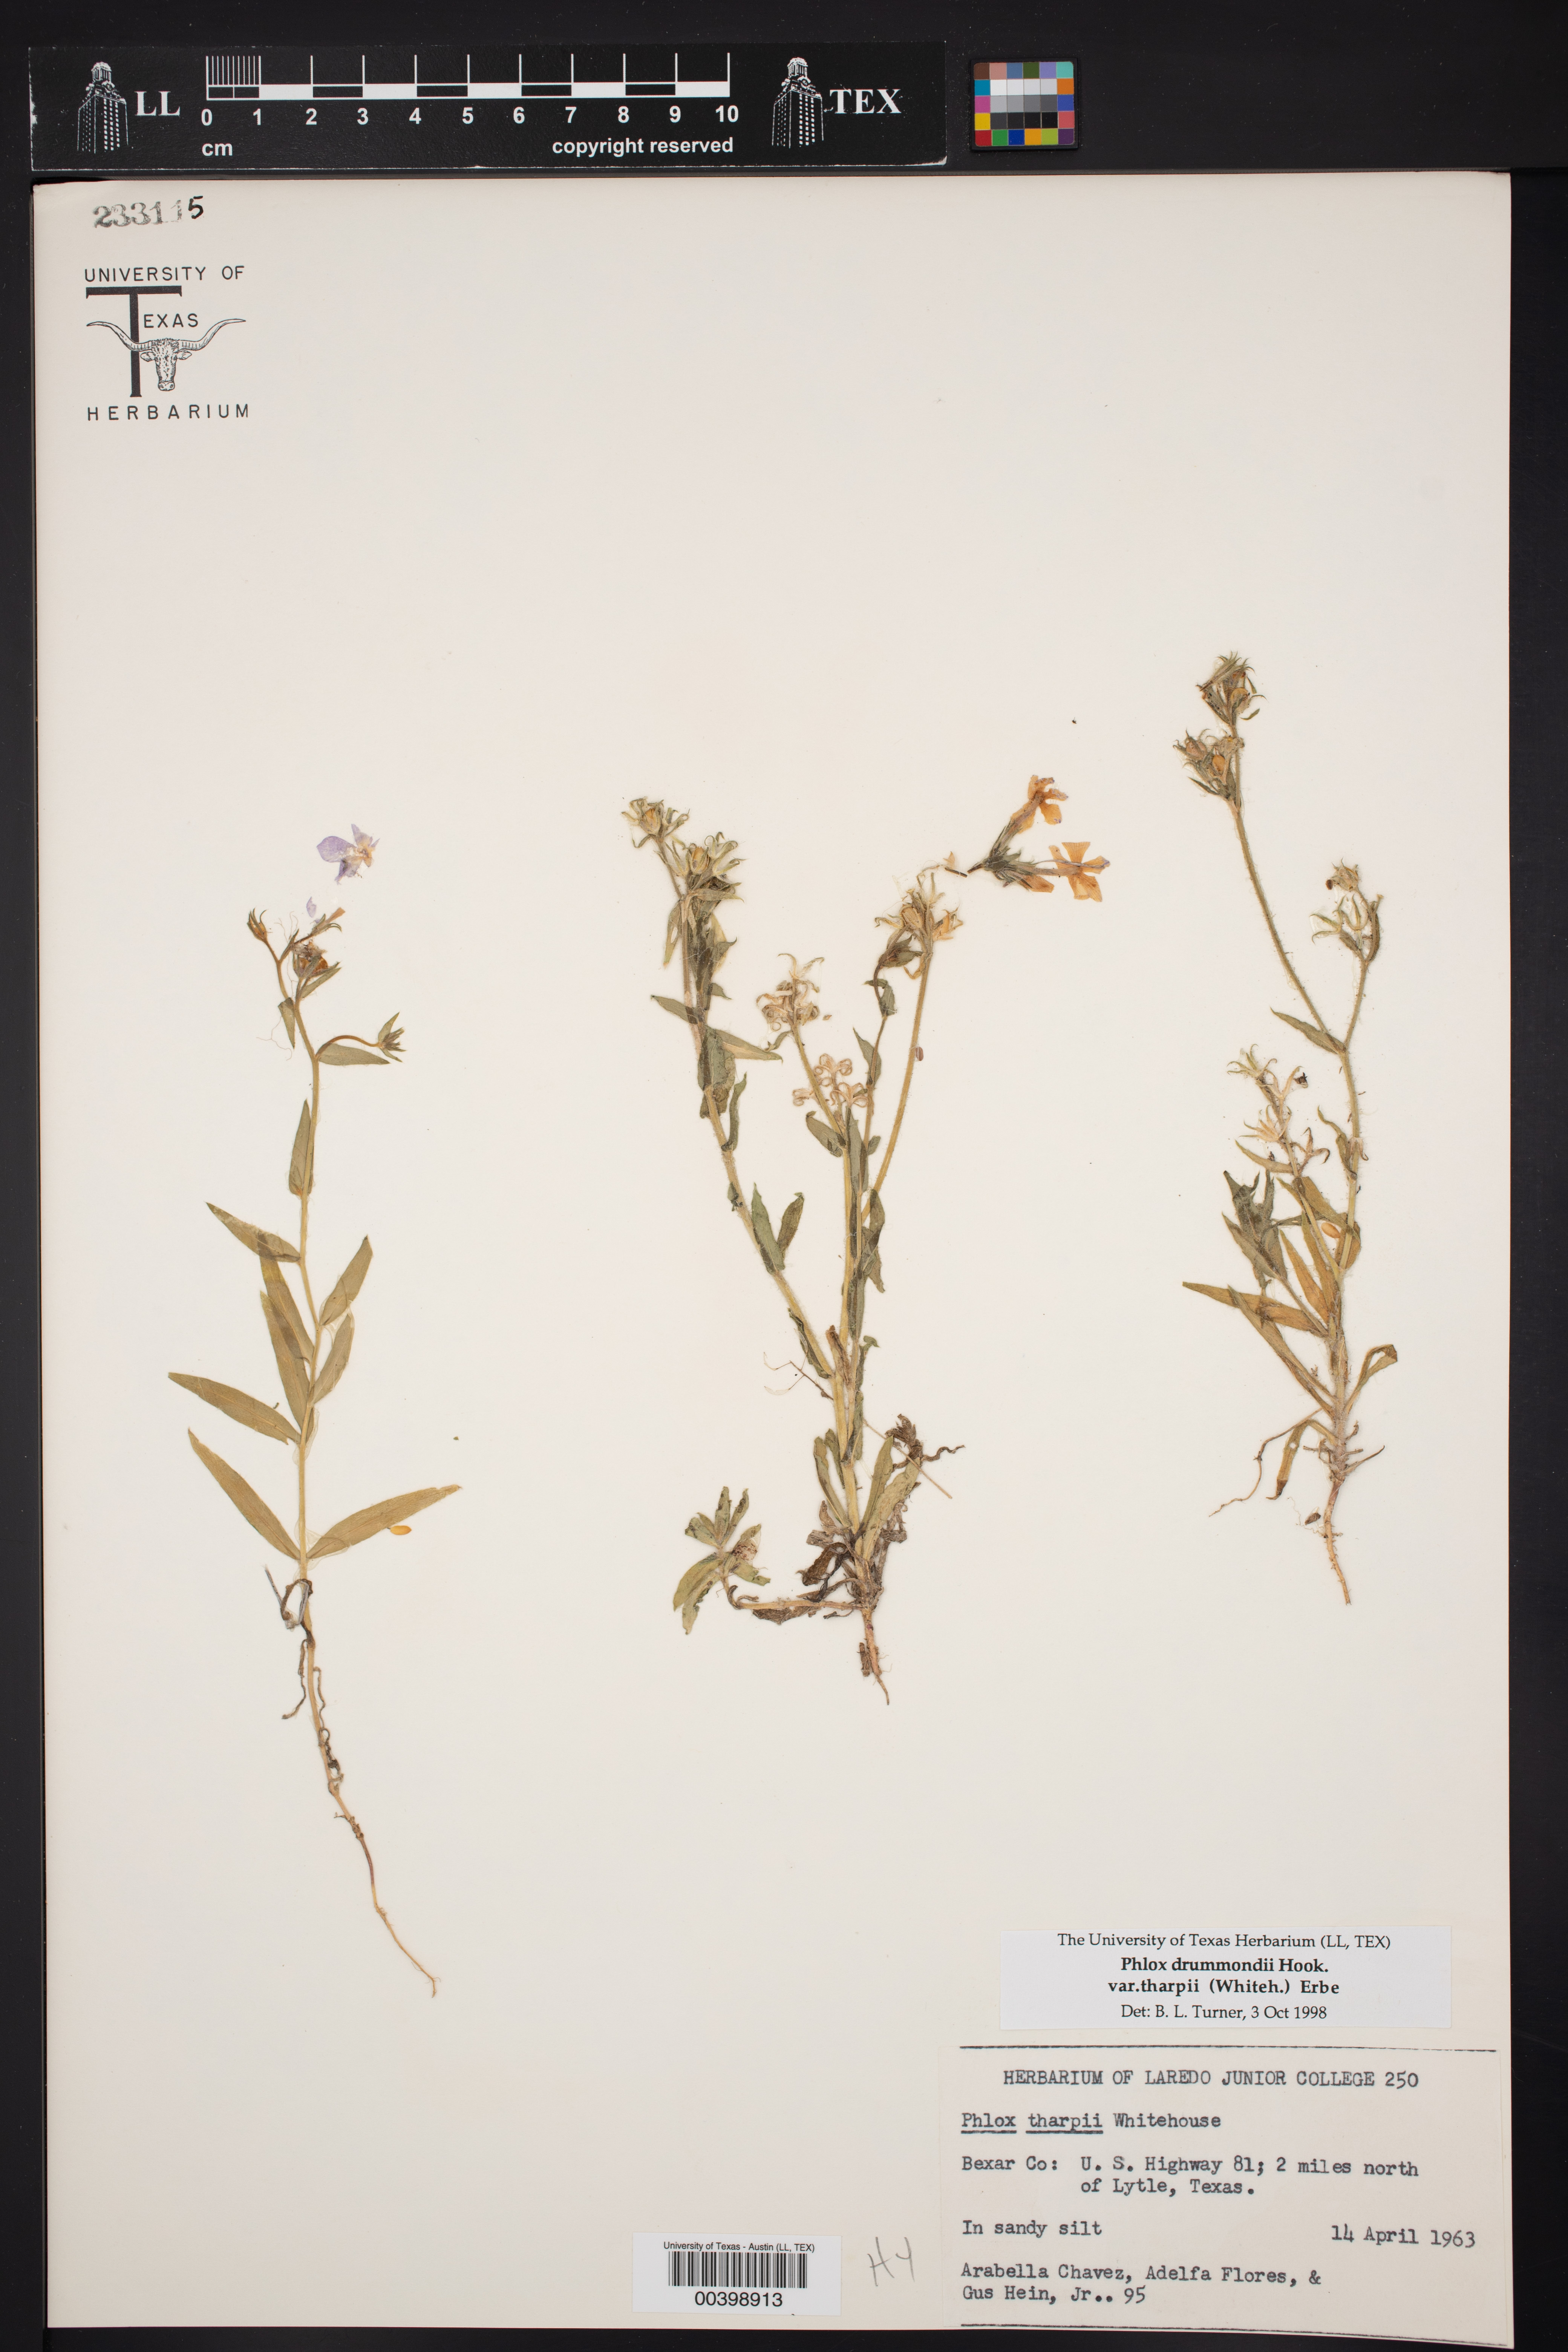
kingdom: Plantae
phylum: Tracheophyta
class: Magnoliopsida
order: Ericales
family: Polemoniaceae
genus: Phlox
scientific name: Phlox drummondii
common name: Drummond's phlox
